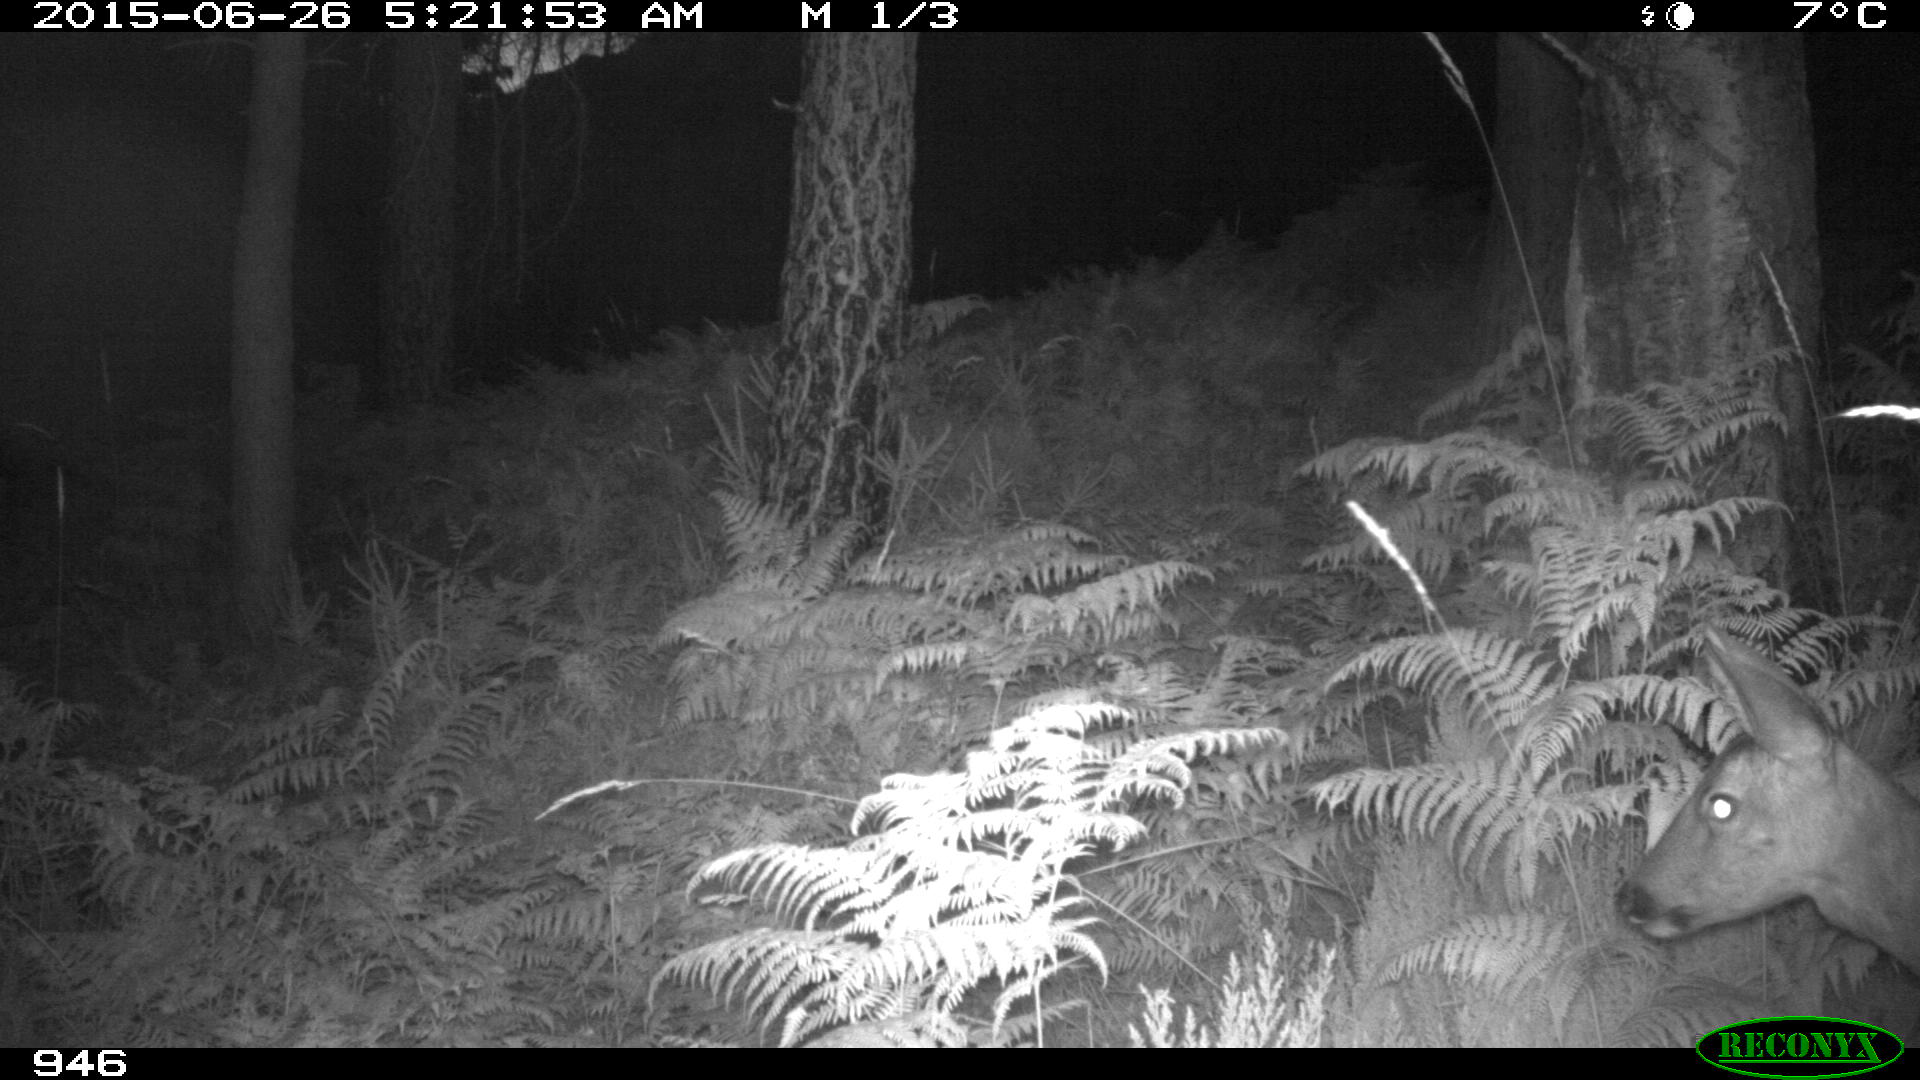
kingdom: Animalia
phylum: Chordata
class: Mammalia
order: Artiodactyla
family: Cervidae
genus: Capreolus
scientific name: Capreolus capreolus
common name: Western roe deer
